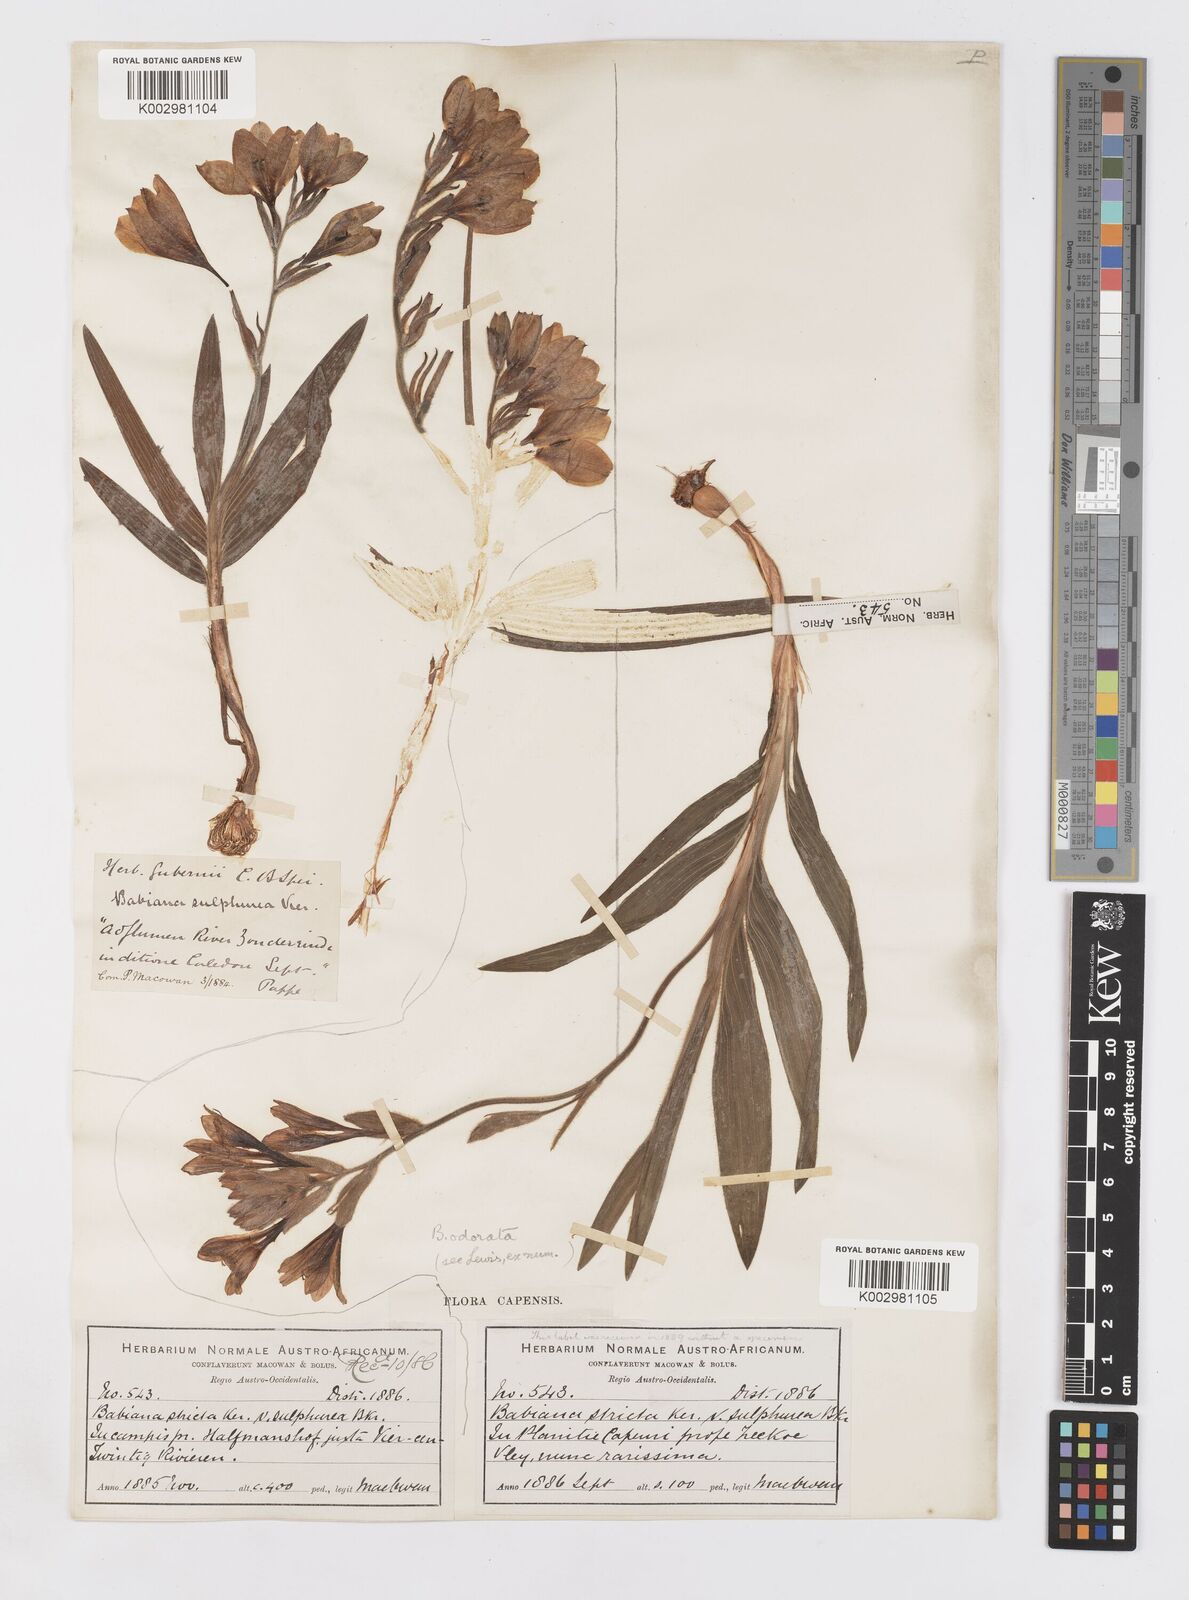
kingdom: Plantae
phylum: Tracheophyta
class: Liliopsida
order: Asparagales
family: Iridaceae
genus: Babiana
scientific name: Babiana odorata
